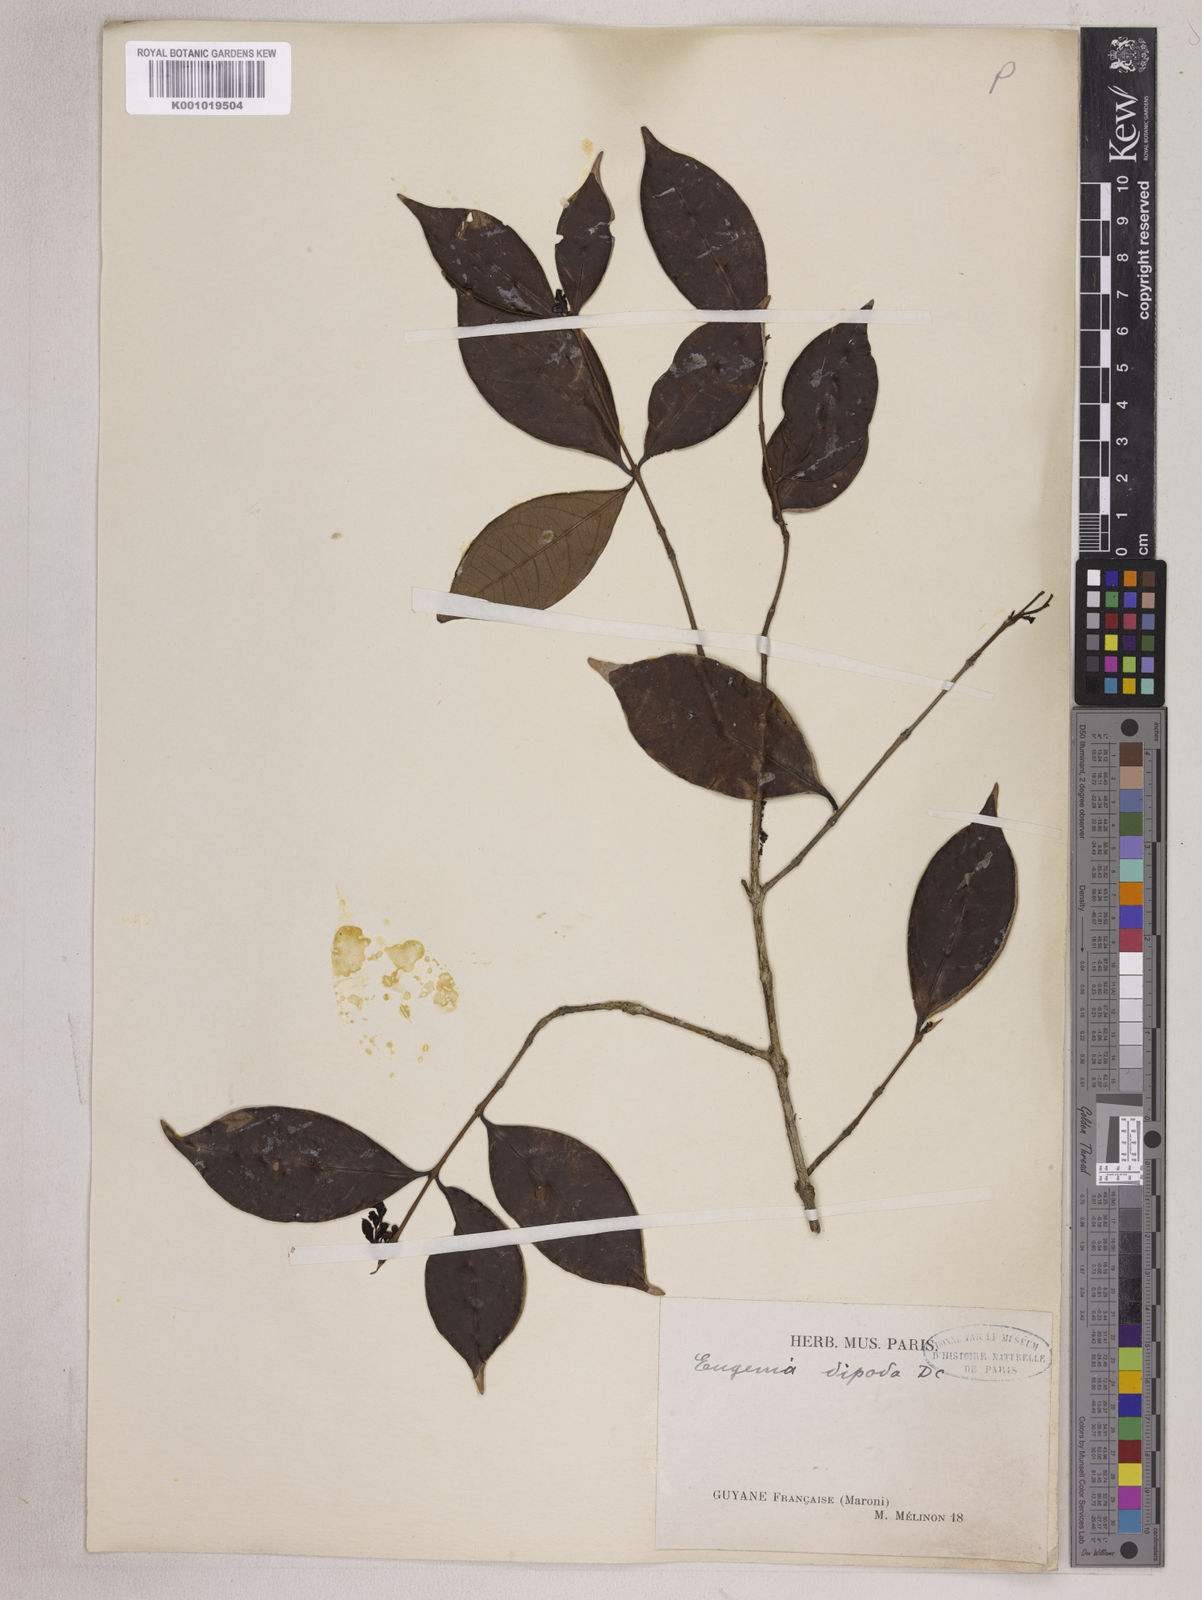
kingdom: Plantae
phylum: Tracheophyta
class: Magnoliopsida
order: Myrtales
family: Myrtaceae
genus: Eugenia
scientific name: Eugenia punicifolia
